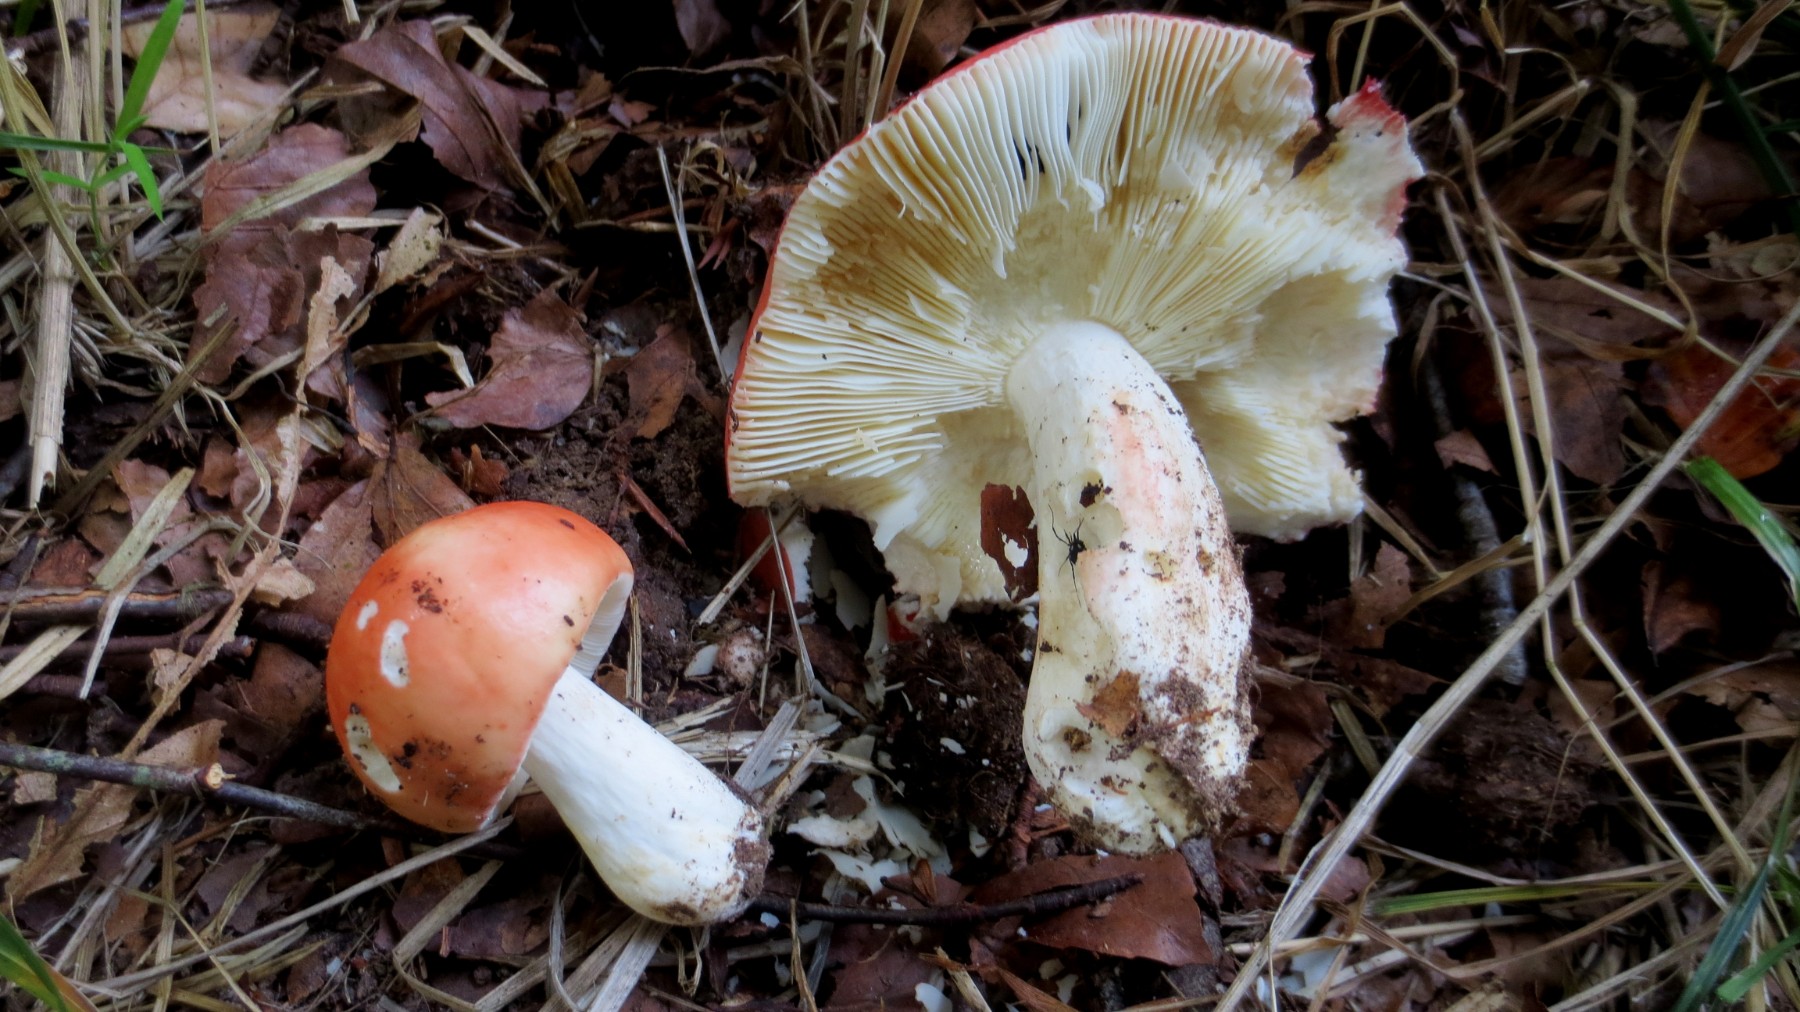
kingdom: Fungi
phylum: Basidiomycota
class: Agaricomycetes
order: Russulales
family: Russulaceae
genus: Russula
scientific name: Russula rosea
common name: fastkødet skørhat
